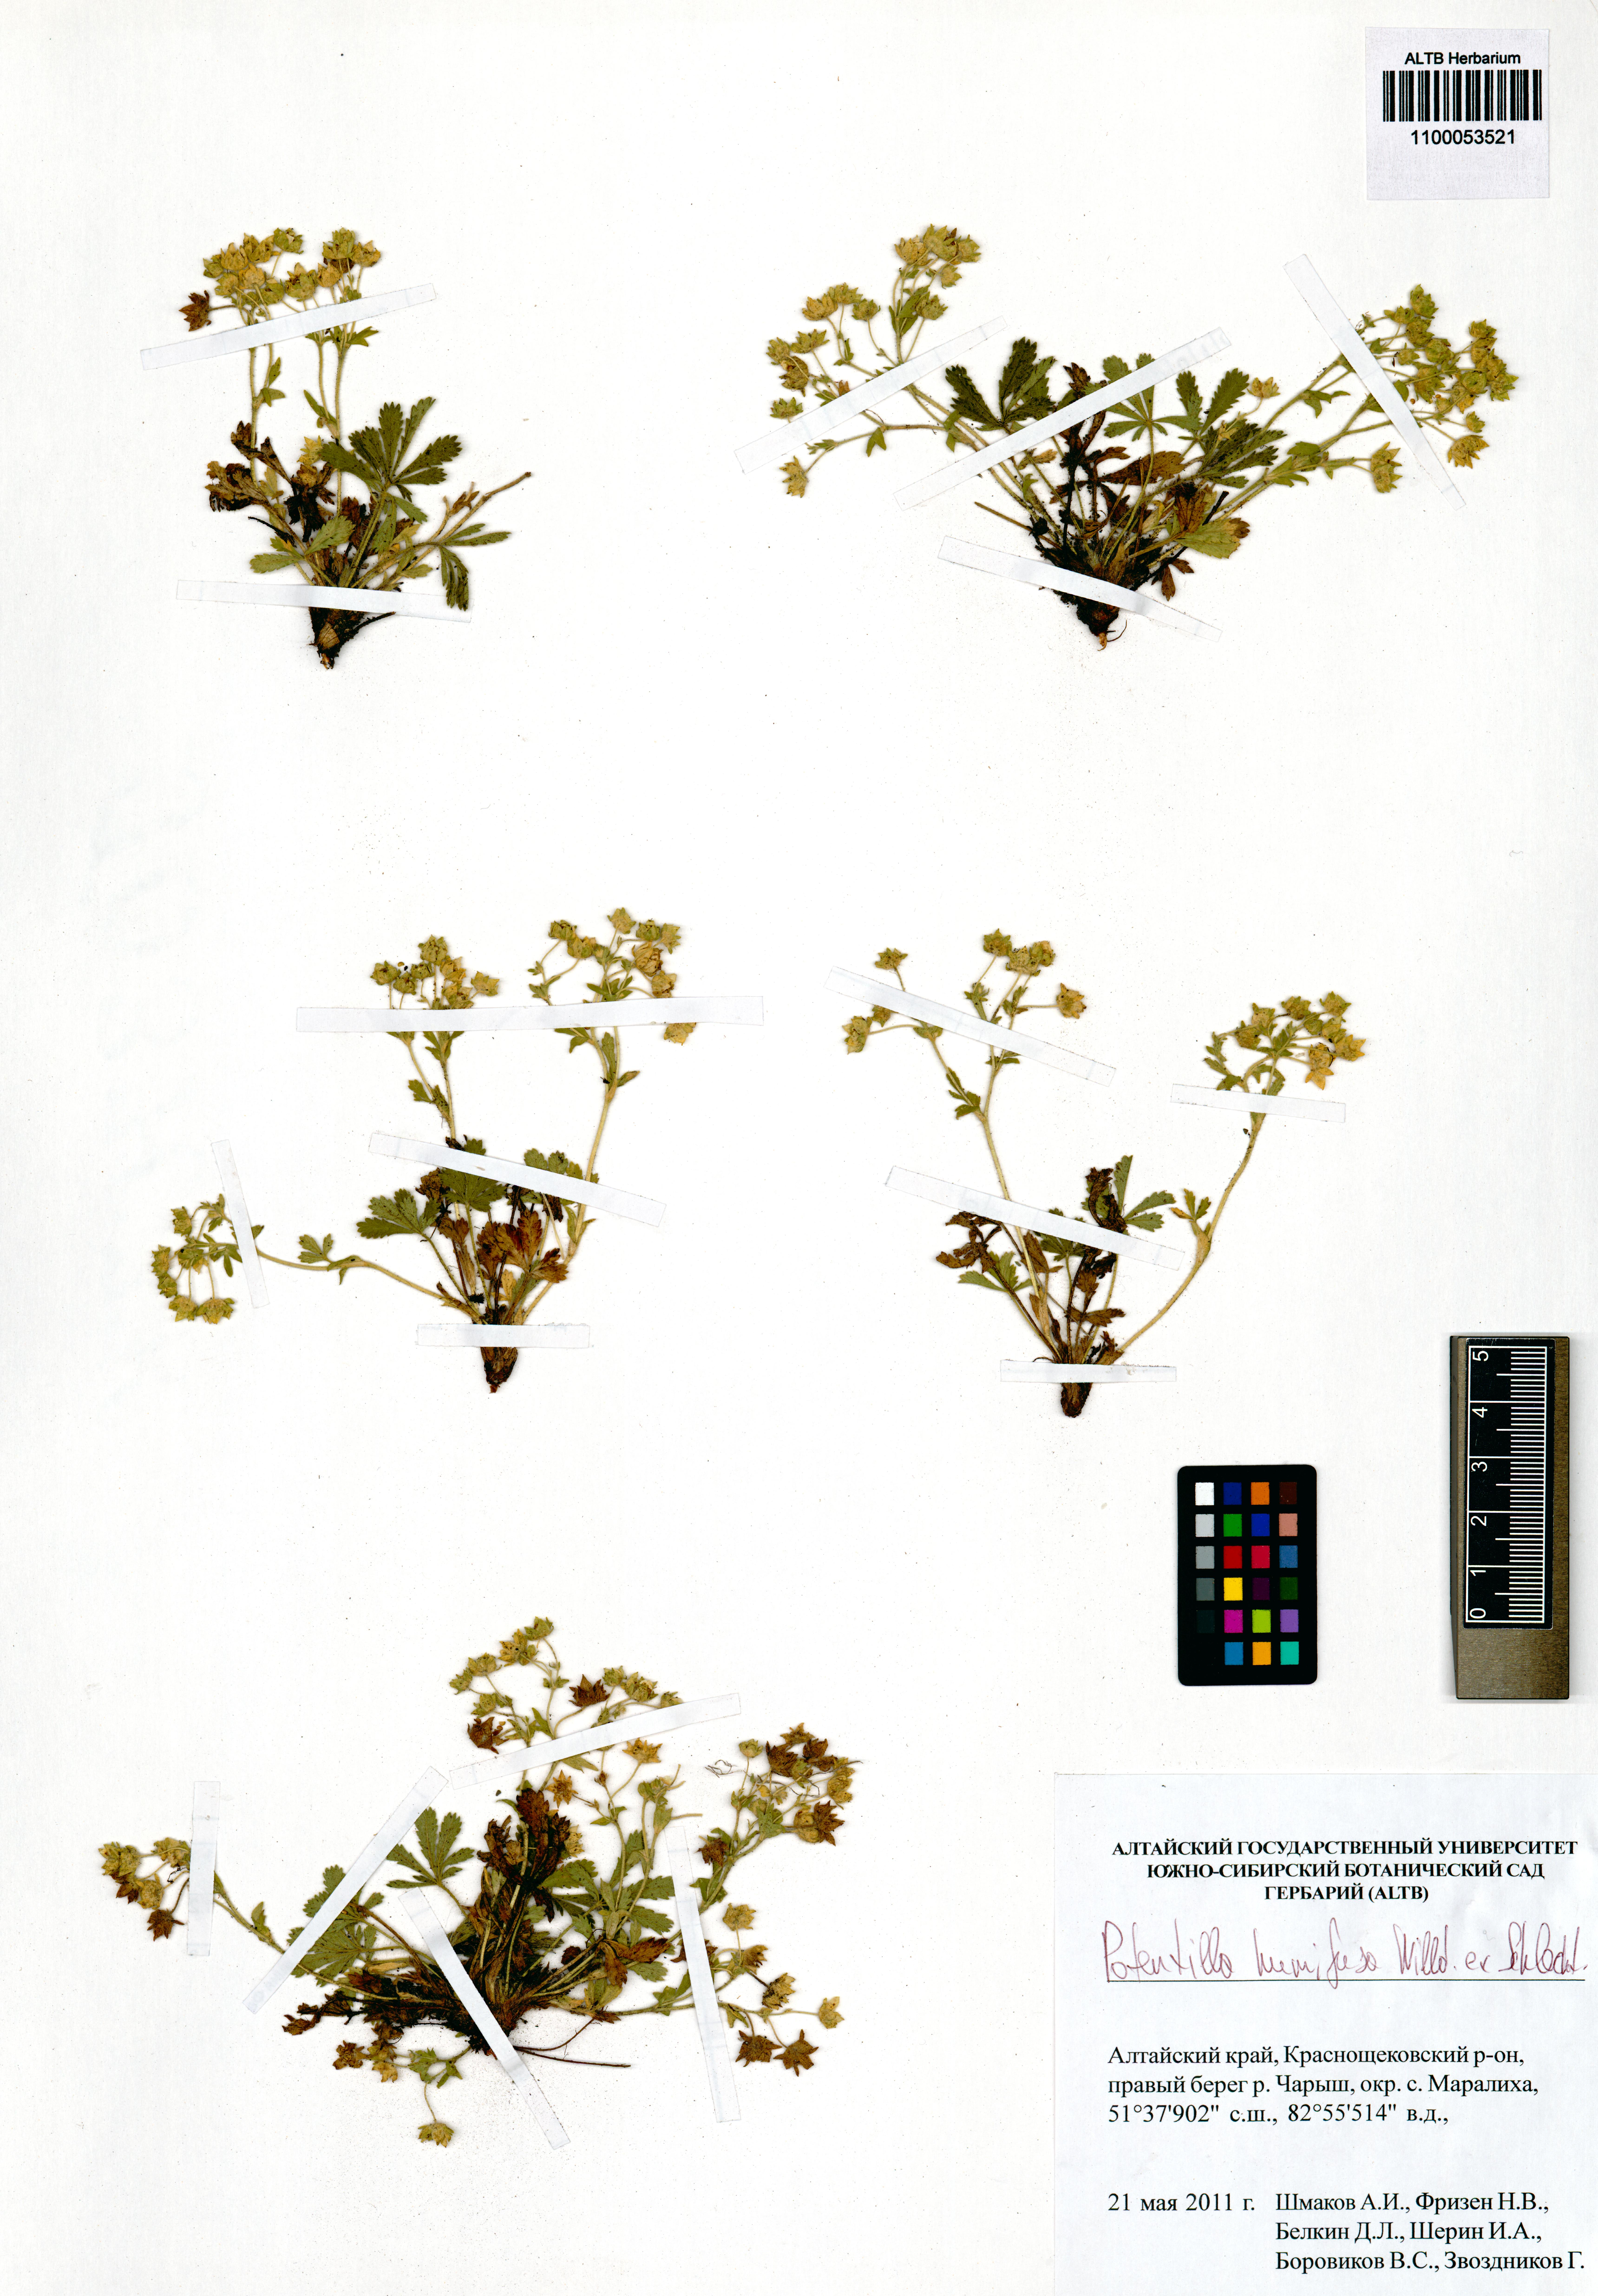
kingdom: Plantae
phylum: Tracheophyta
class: Magnoliopsida
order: Rosales
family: Rosaceae
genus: Potentilla
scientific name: Potentilla humifusa
